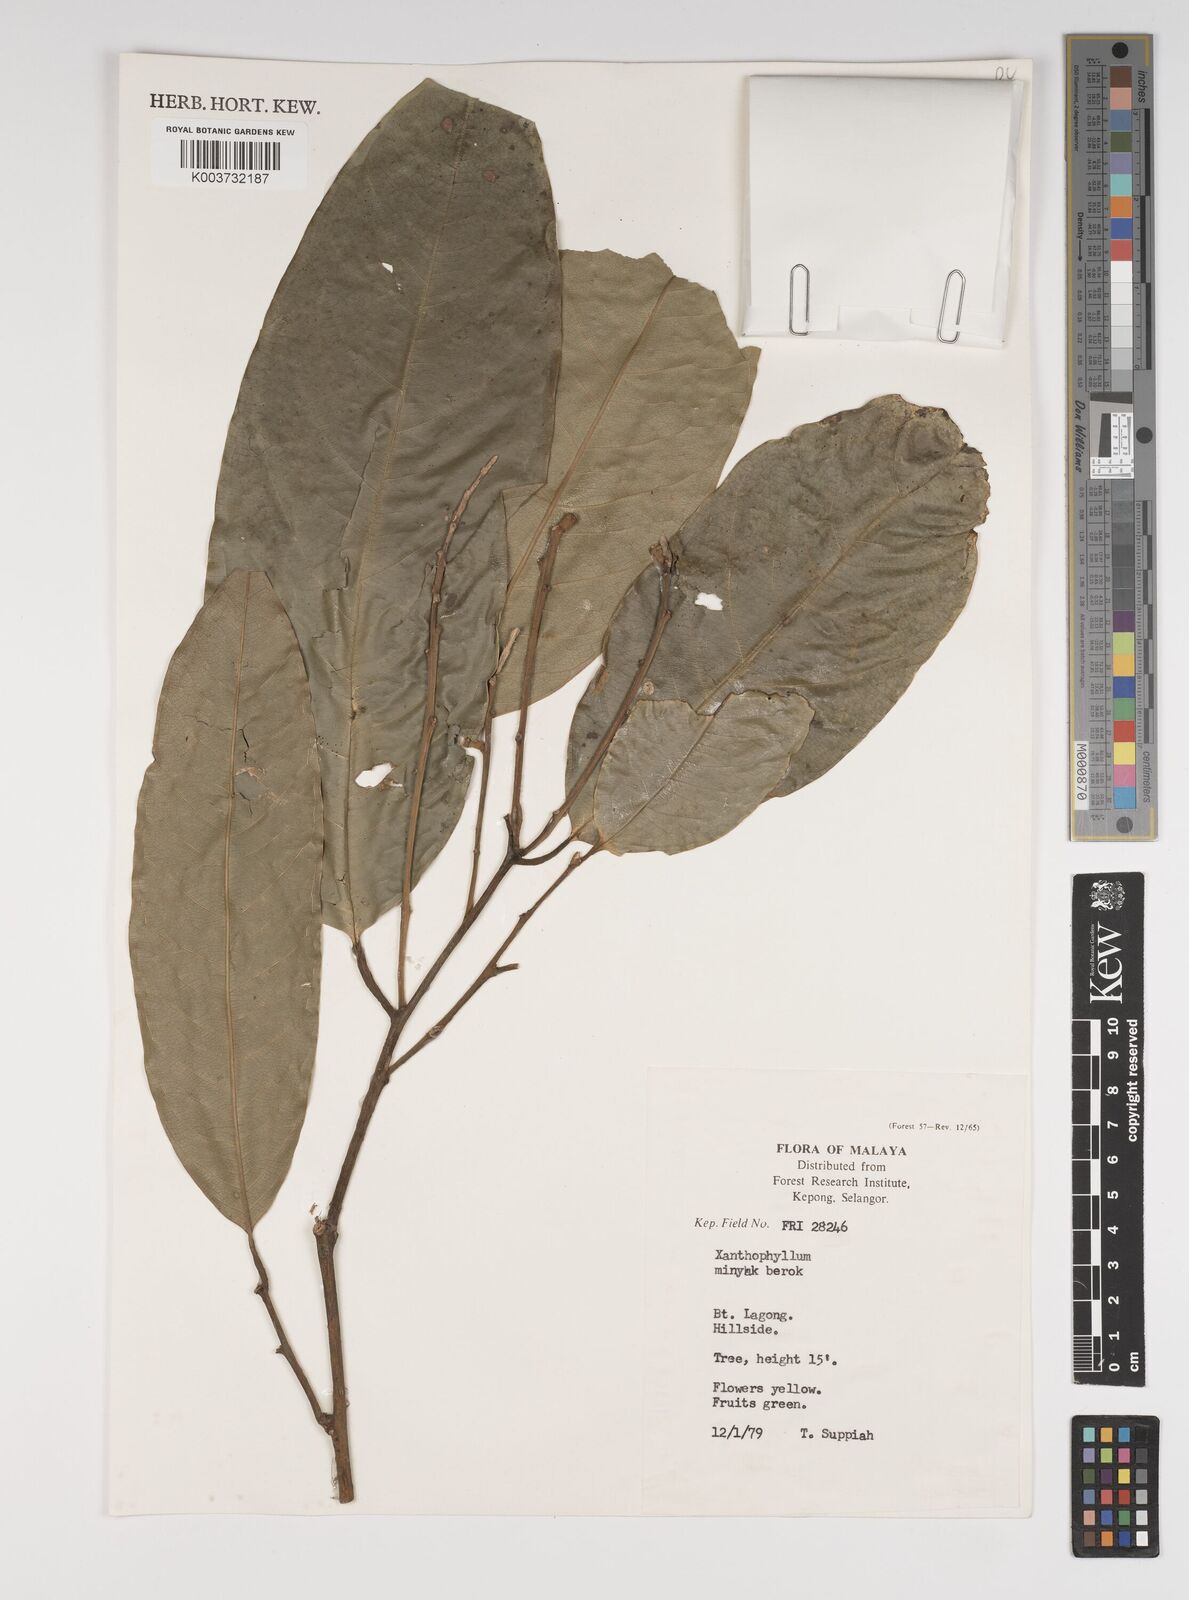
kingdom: Plantae
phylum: Tracheophyta
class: Magnoliopsida
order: Fabales
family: Polygalaceae
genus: Xanthophyllum
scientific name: Xanthophyllum
